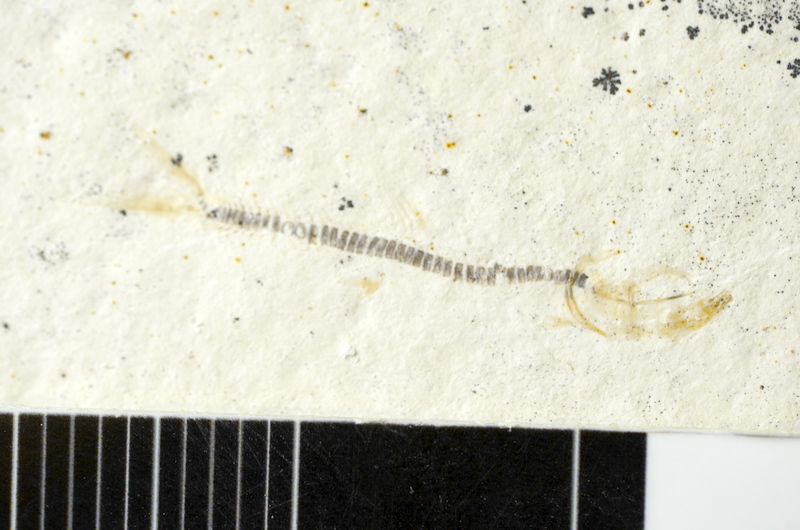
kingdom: Animalia
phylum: Chordata
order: Salmoniformes
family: Orthogonikleithridae
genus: Orthogonikleithrus
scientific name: Orthogonikleithrus hoelli
